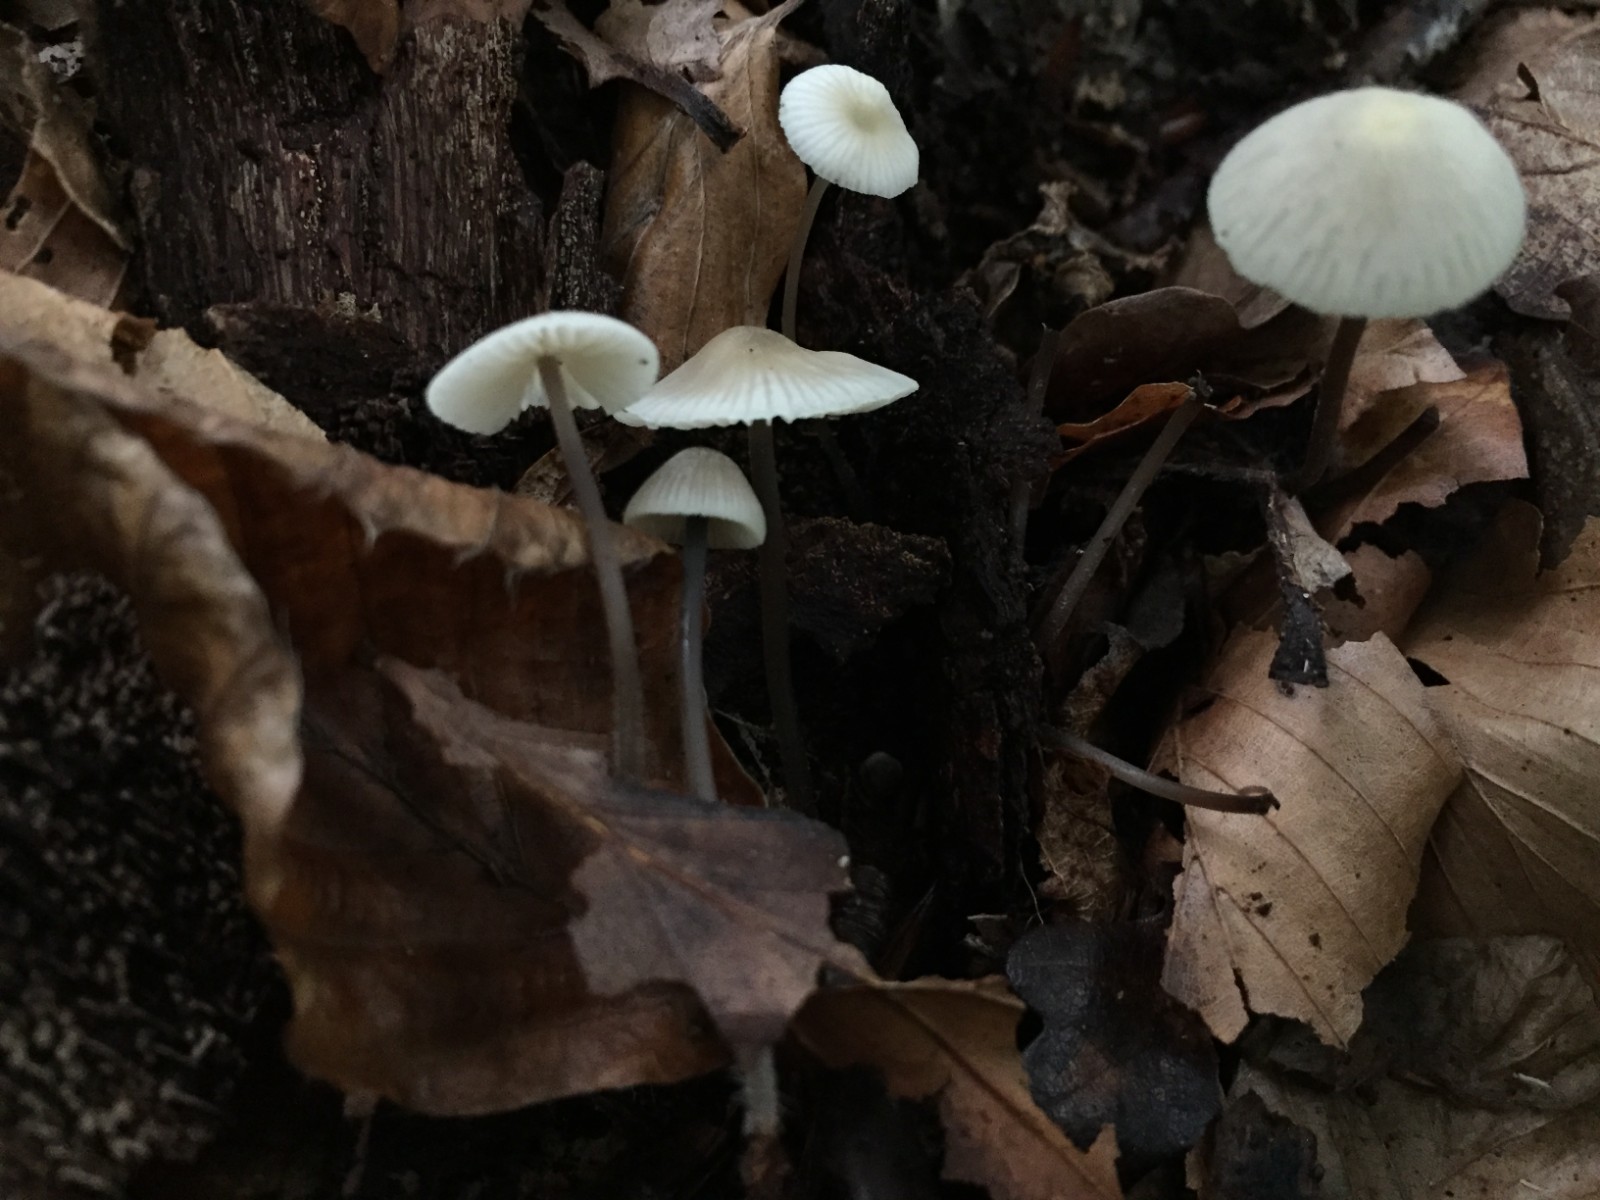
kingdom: Fungi
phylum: Basidiomycota
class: Agaricomycetes
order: Agaricales
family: Mycenaceae
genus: Mycena
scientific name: Mycena flavescens
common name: grågul huesvamp
